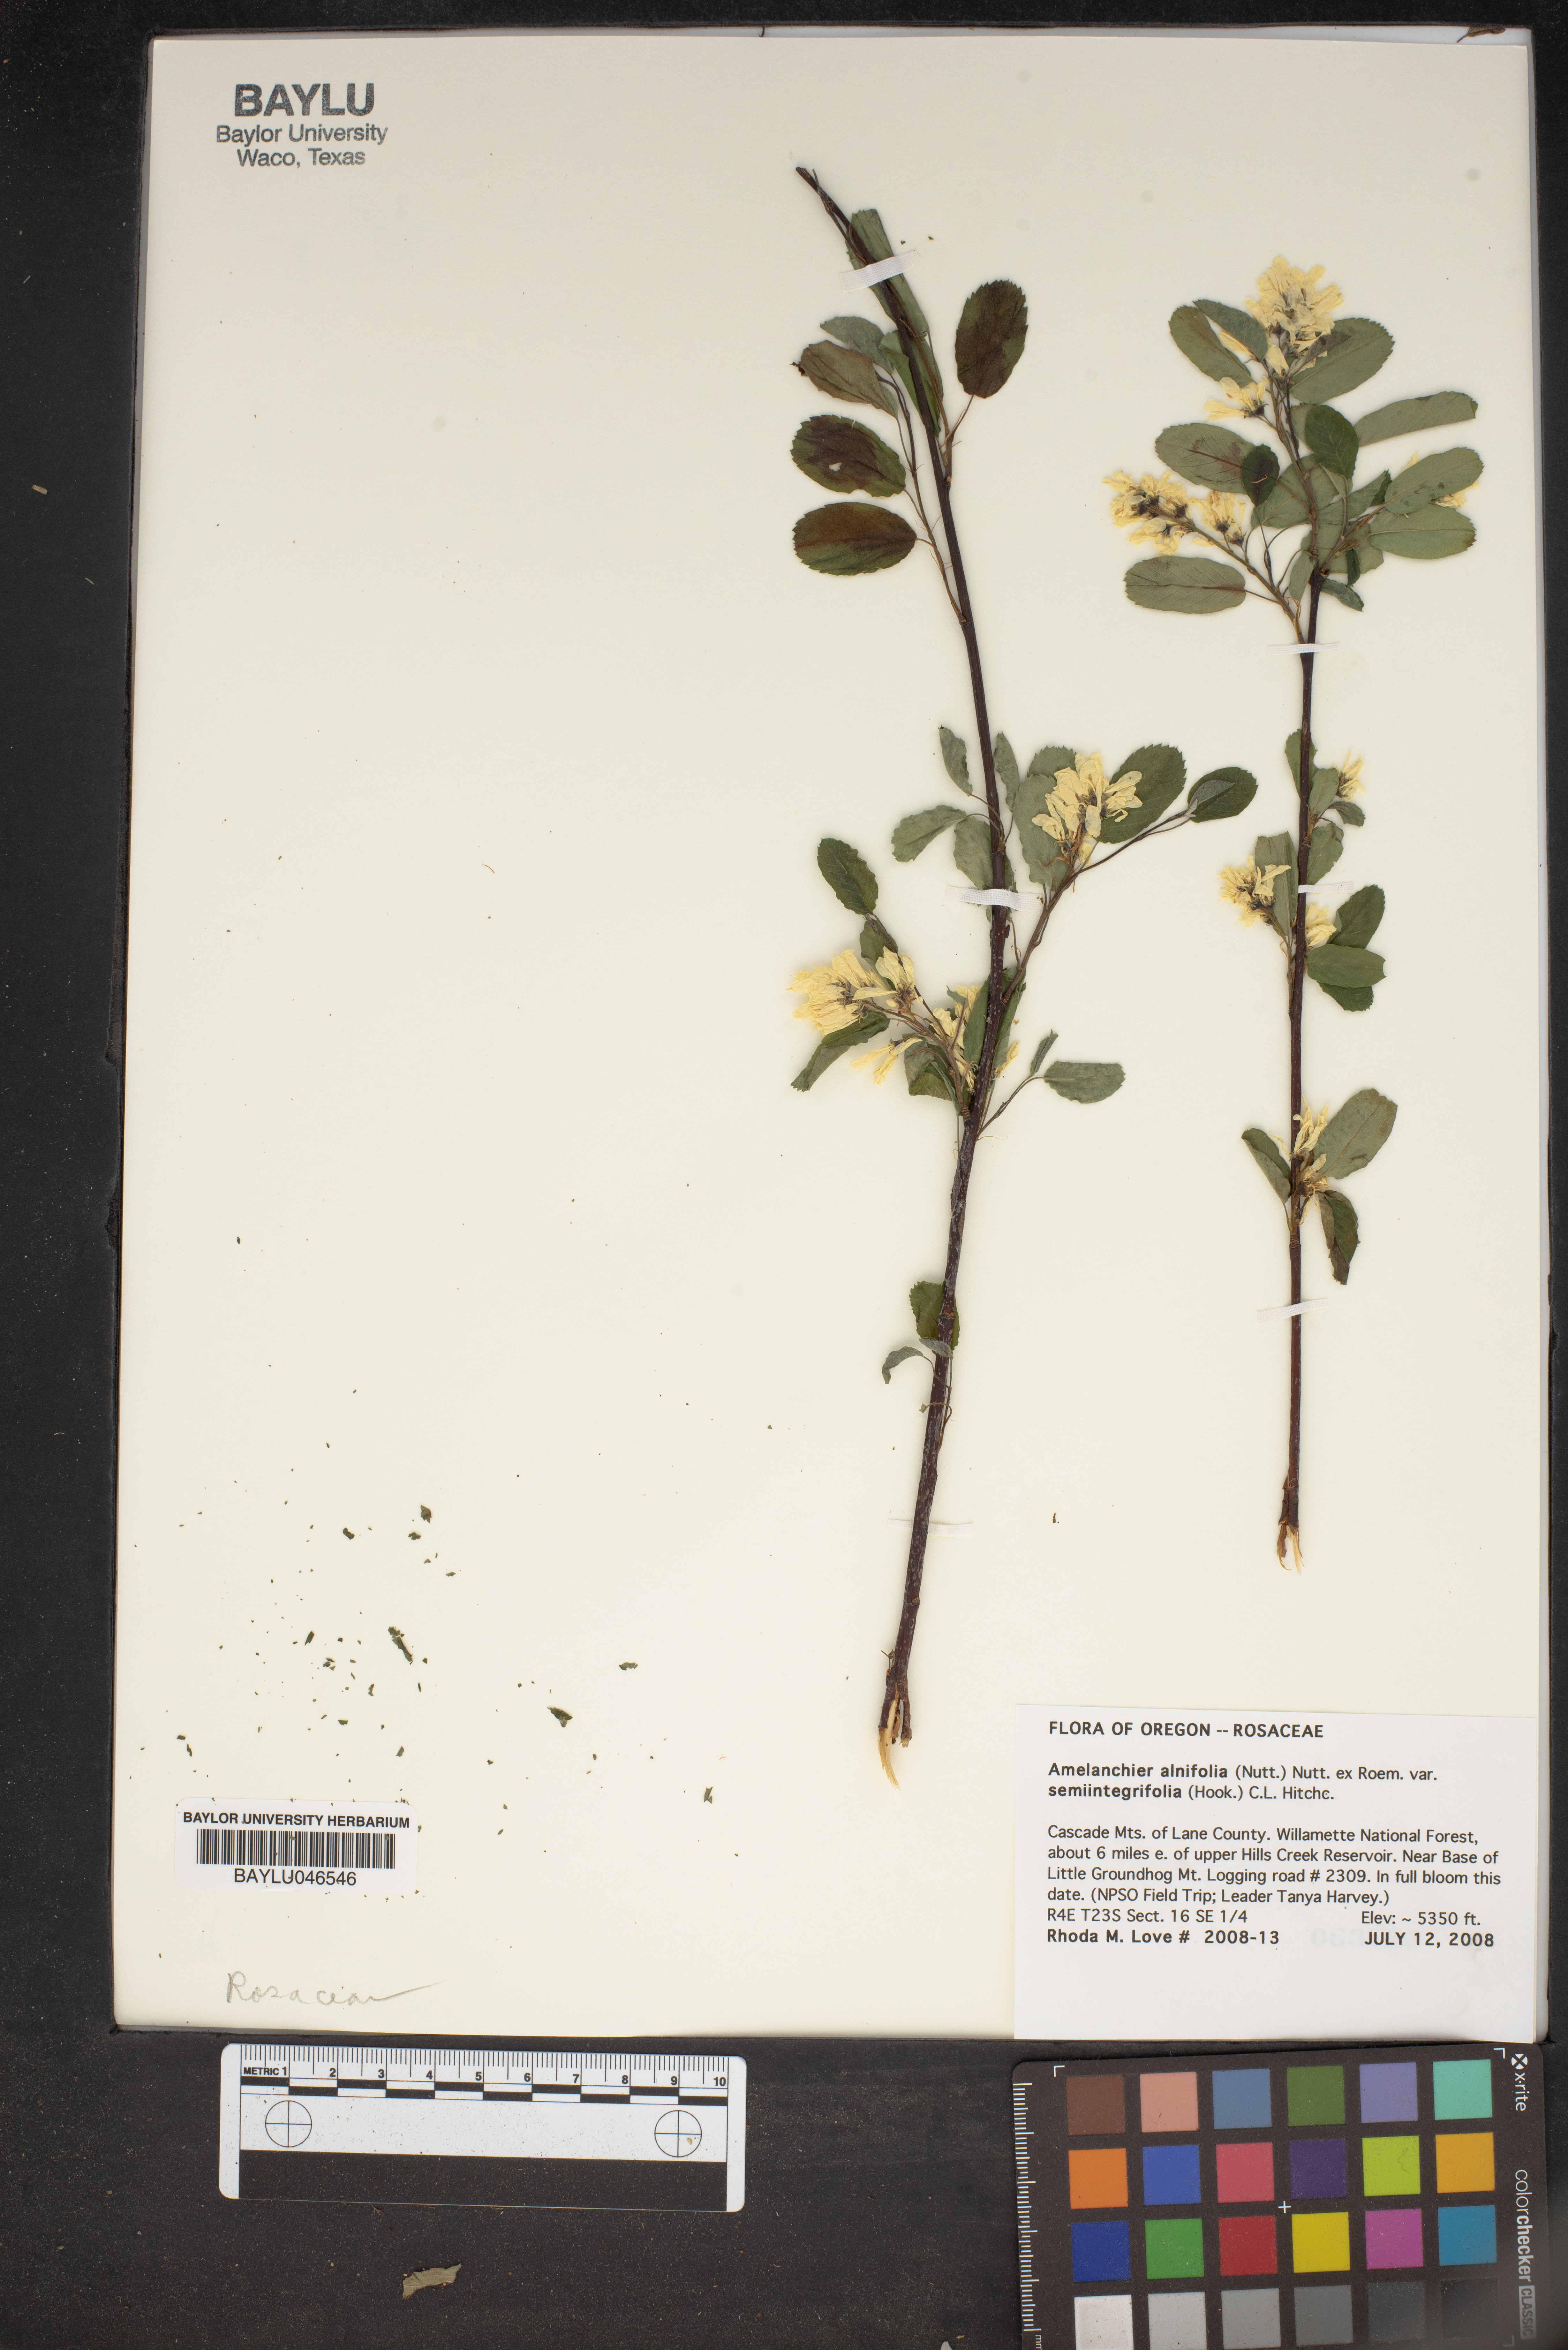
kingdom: Plantae
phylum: Tracheophyta
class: Magnoliopsida
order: Rosales
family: Rosaceae
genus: Amelanchier
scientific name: Amelanchier alnifolia
